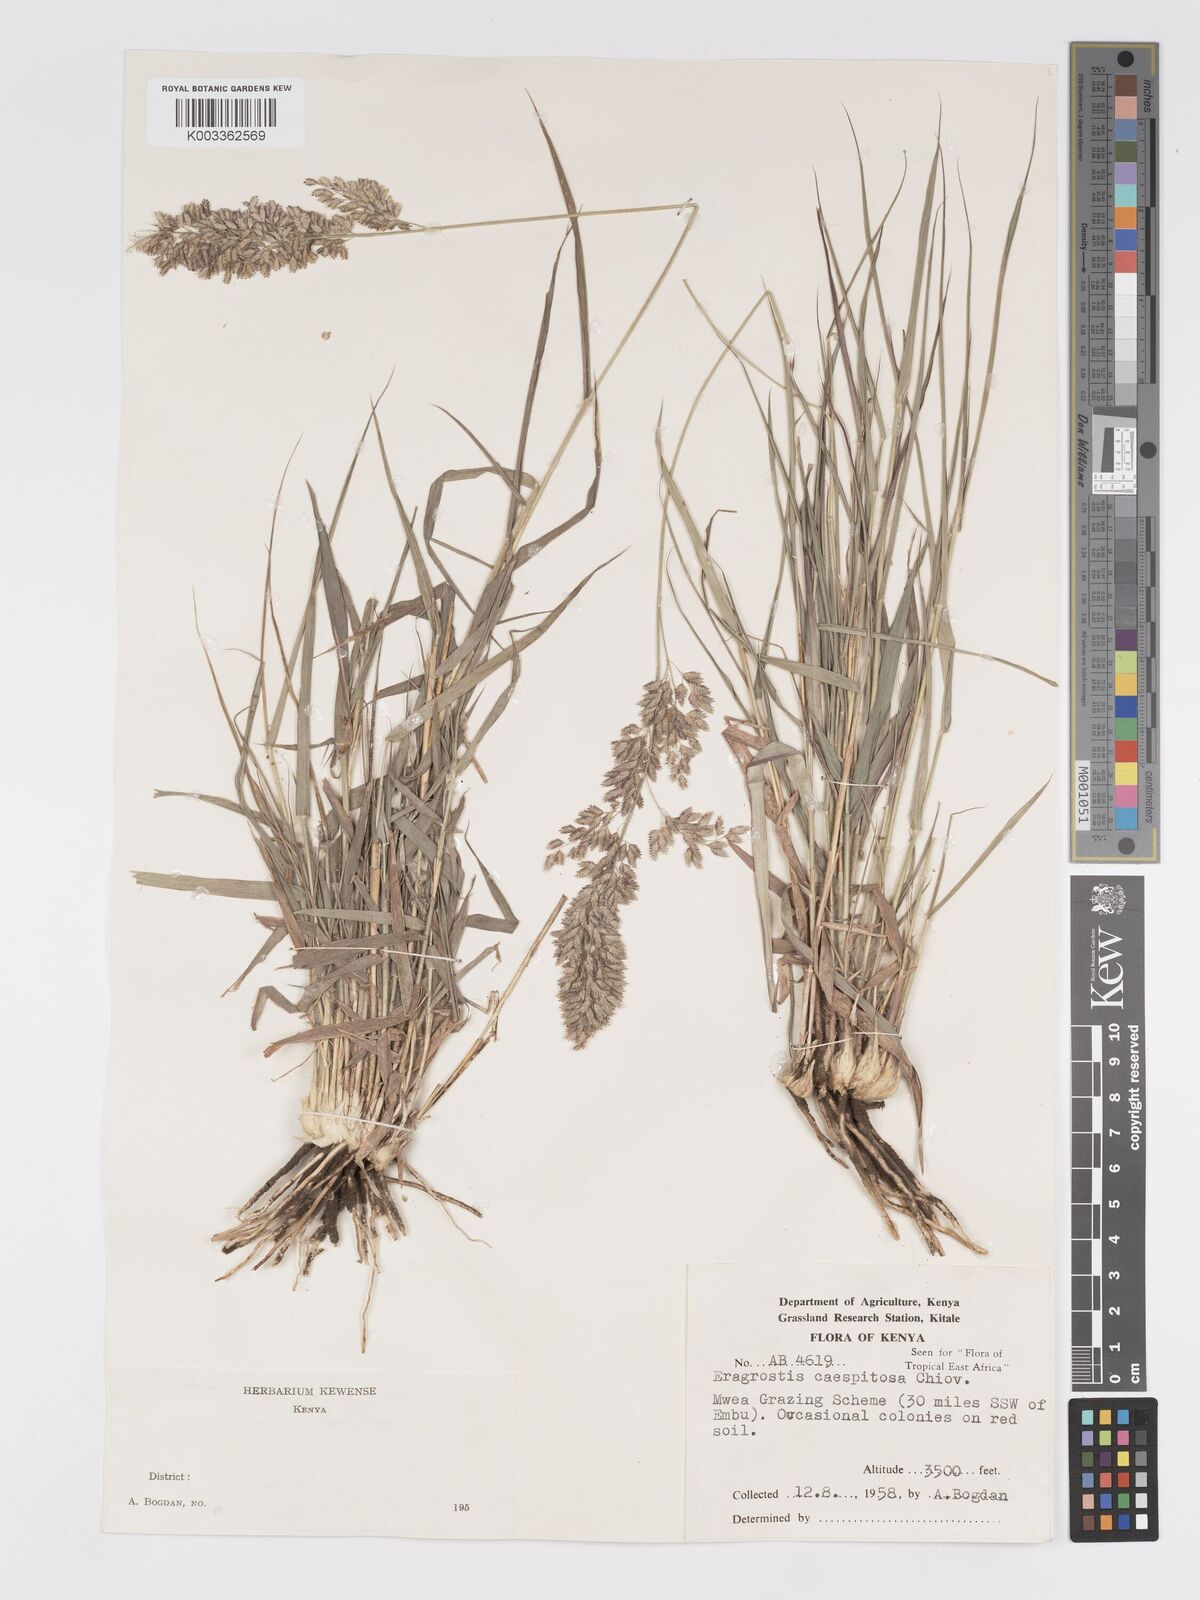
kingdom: Plantae
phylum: Tracheophyta
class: Liliopsida
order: Poales
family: Poaceae
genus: Eragrostis
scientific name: Eragrostis caespitosa
